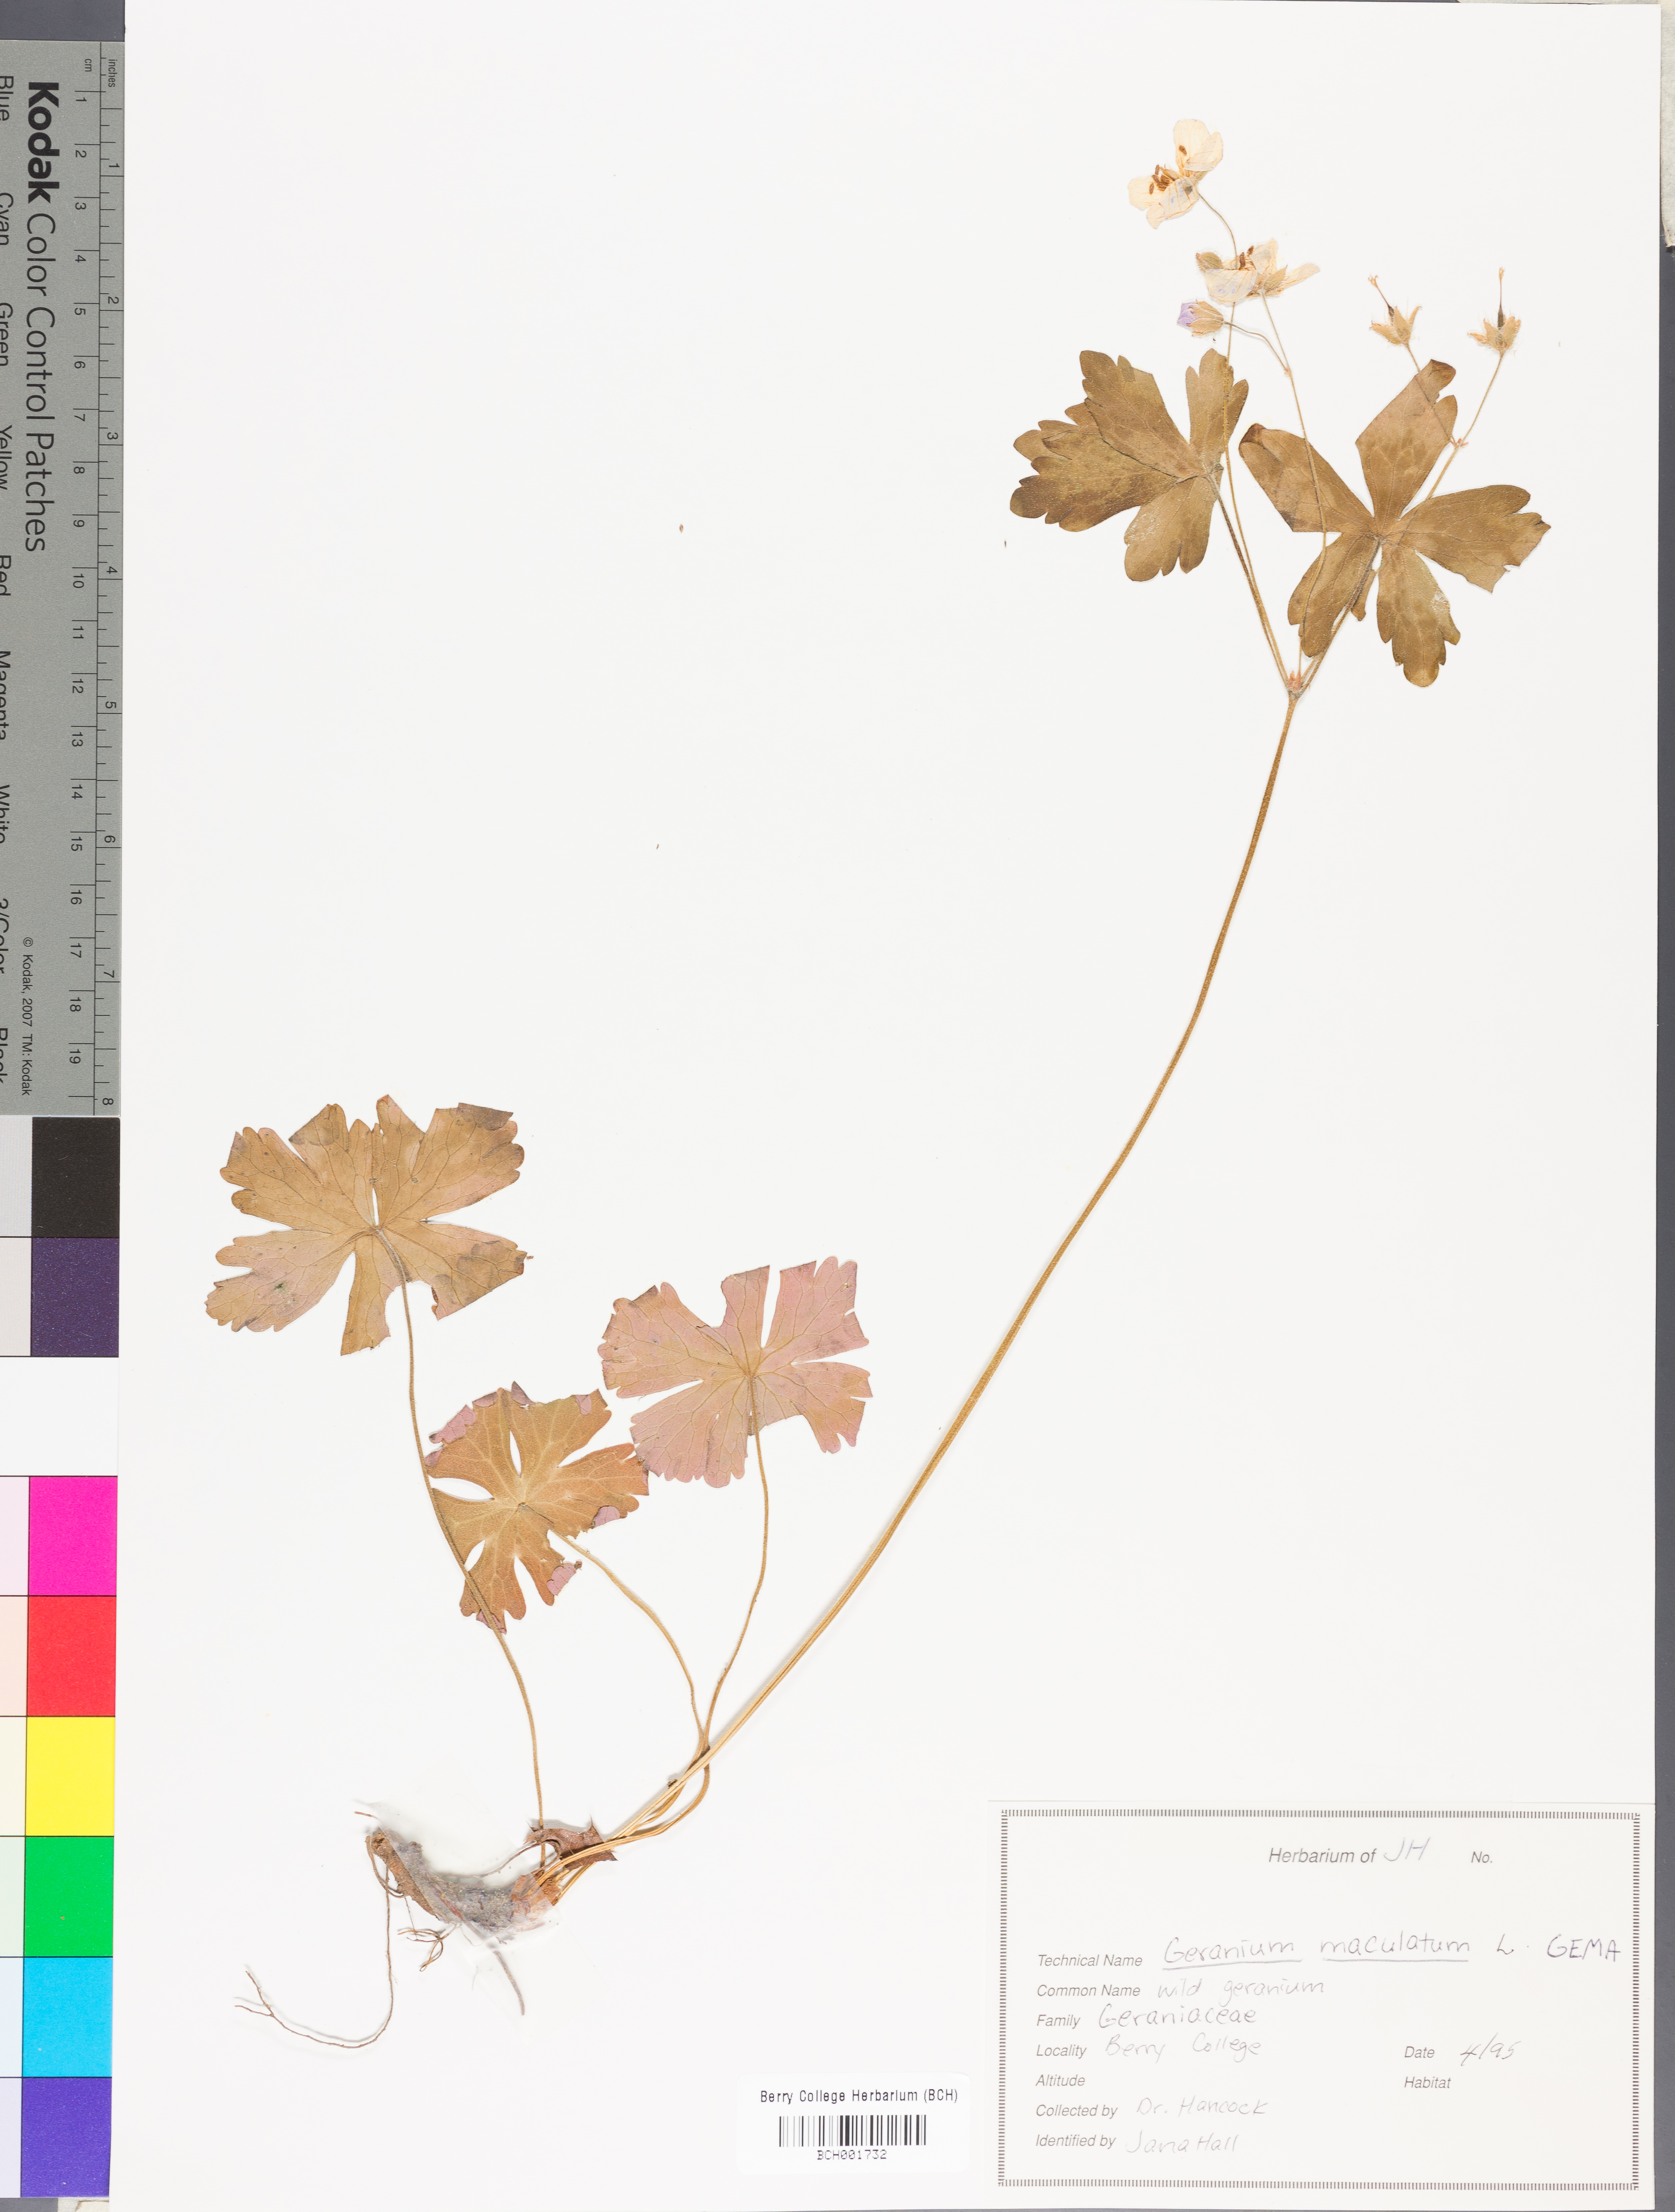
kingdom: Plantae
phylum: Tracheophyta
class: Magnoliopsida
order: Geraniales
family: Geraniaceae
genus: Geranium
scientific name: Geranium maculatum
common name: Spotted geranium
